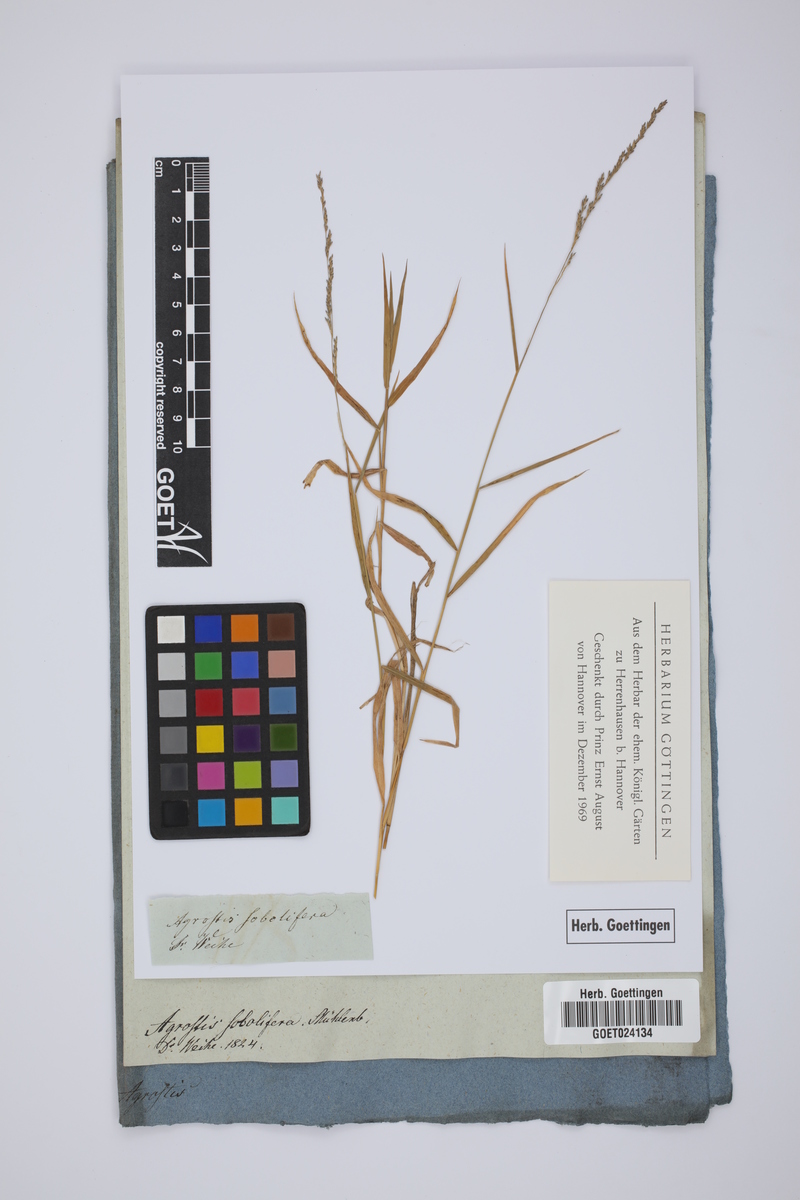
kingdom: Plantae
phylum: Tracheophyta
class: Liliopsida
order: Poales
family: Poaceae
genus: Muhlenbergia
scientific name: Muhlenbergia sobolifera
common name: Creeping muhly
